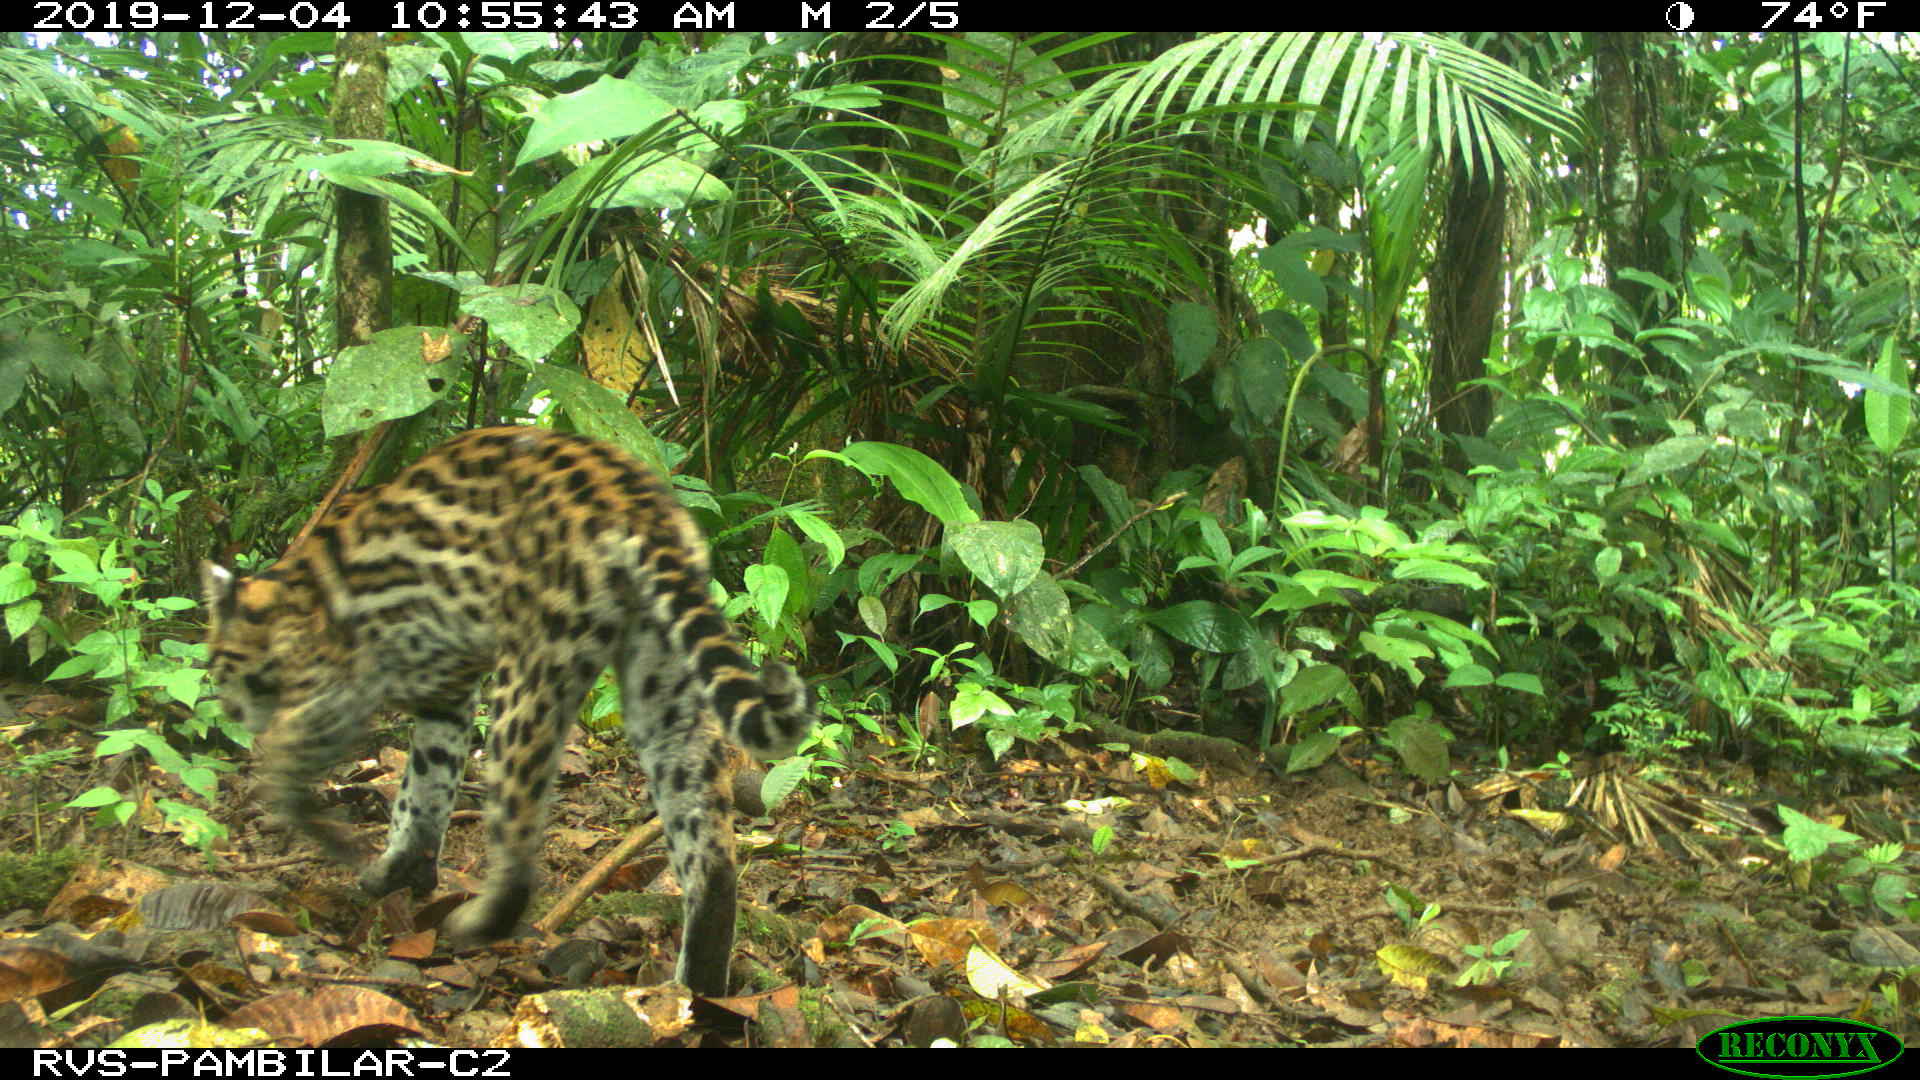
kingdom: Animalia
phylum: Chordata
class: Mammalia
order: Carnivora
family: Felidae
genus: Leopardus
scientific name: Leopardus pardalis
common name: Ocelot
